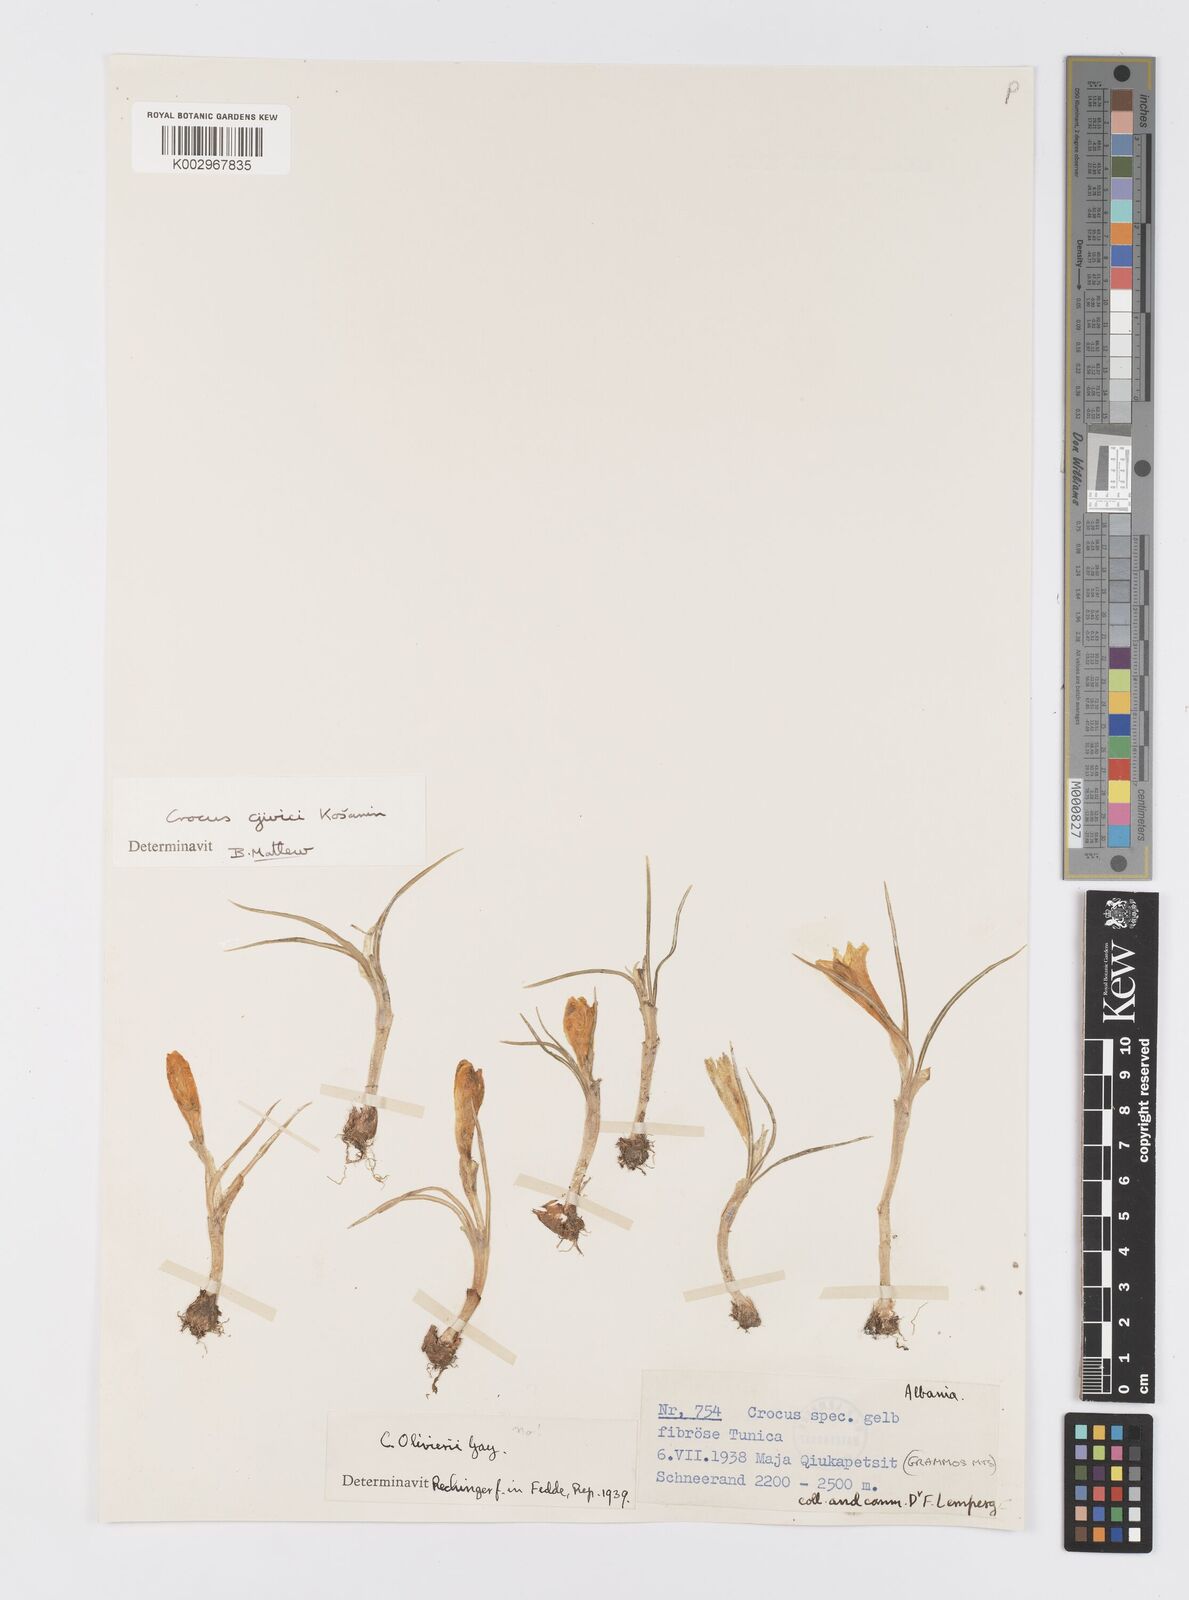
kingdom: Plantae
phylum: Tracheophyta
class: Liliopsida
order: Asparagales
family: Iridaceae
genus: Crocus
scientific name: Crocus cvijicii
